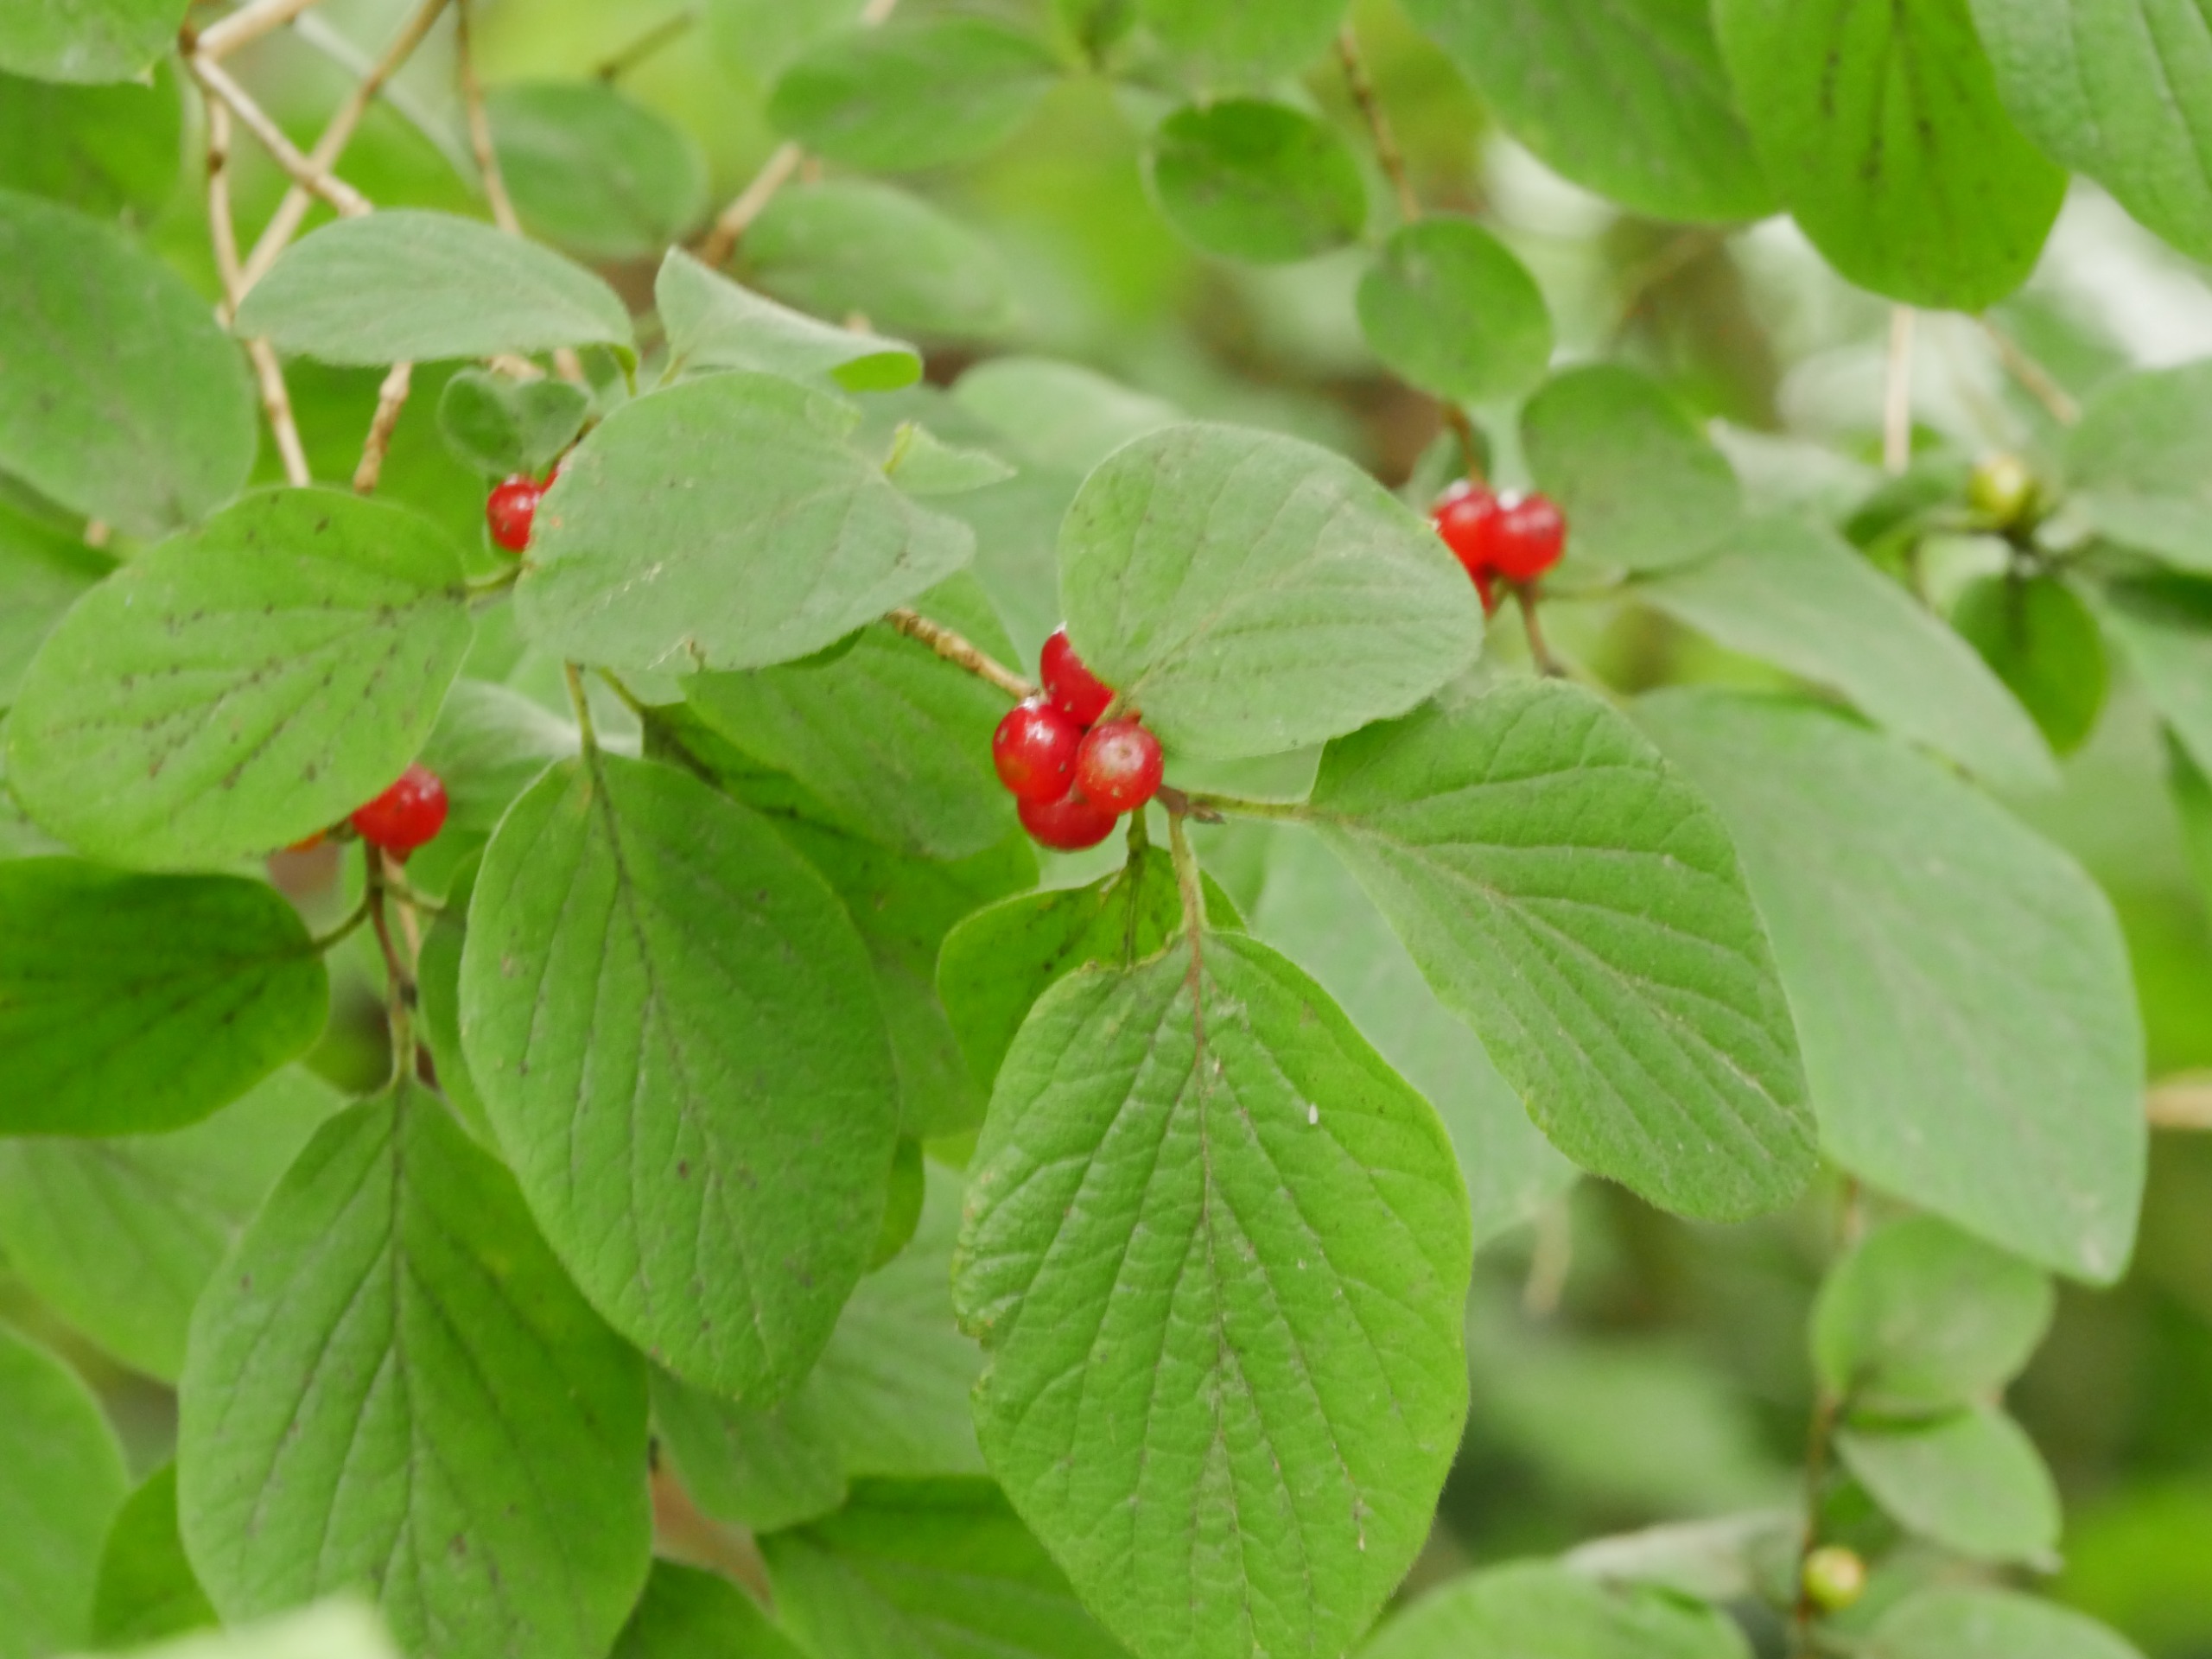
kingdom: Plantae
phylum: Tracheophyta
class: Magnoliopsida
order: Dipsacales
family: Caprifoliaceae
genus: Lonicera
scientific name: Lonicera xylosteum
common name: Dunet gedeblad
